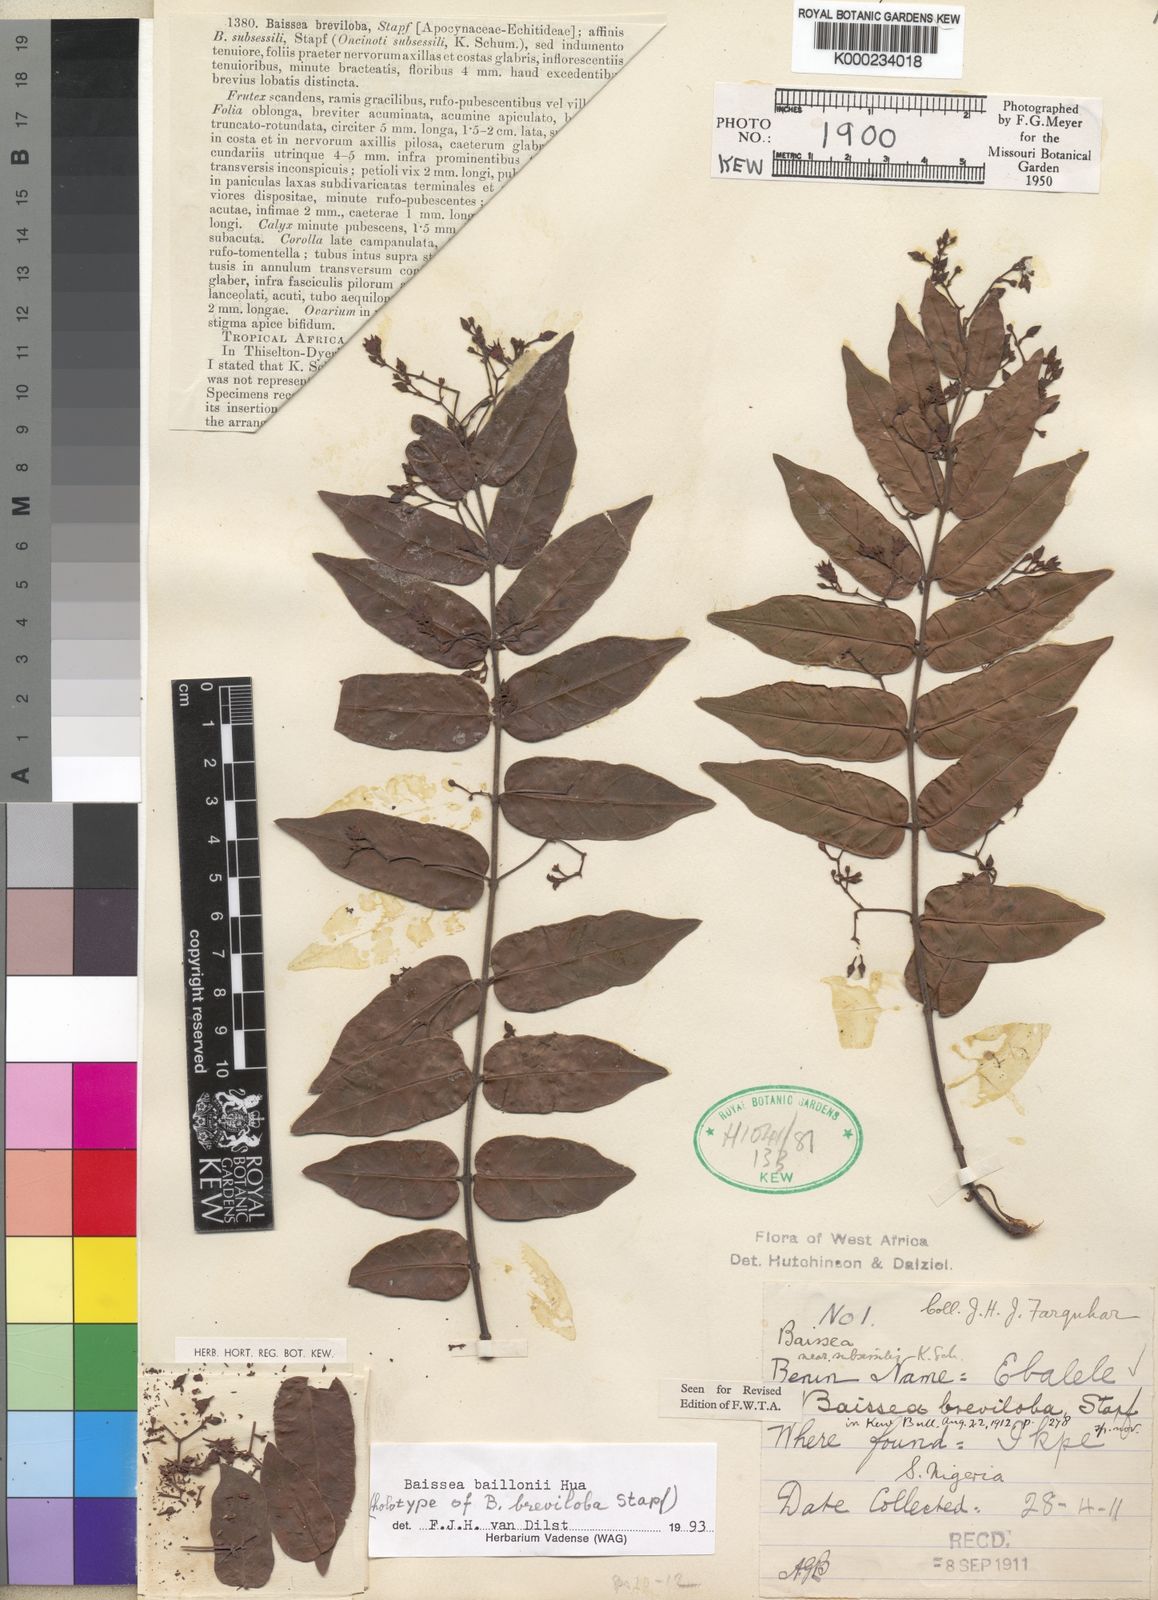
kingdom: Plantae
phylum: Tracheophyta
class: Magnoliopsida
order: Gentianales
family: Apocynaceae
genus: Baissea
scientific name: Baissea baillonii
